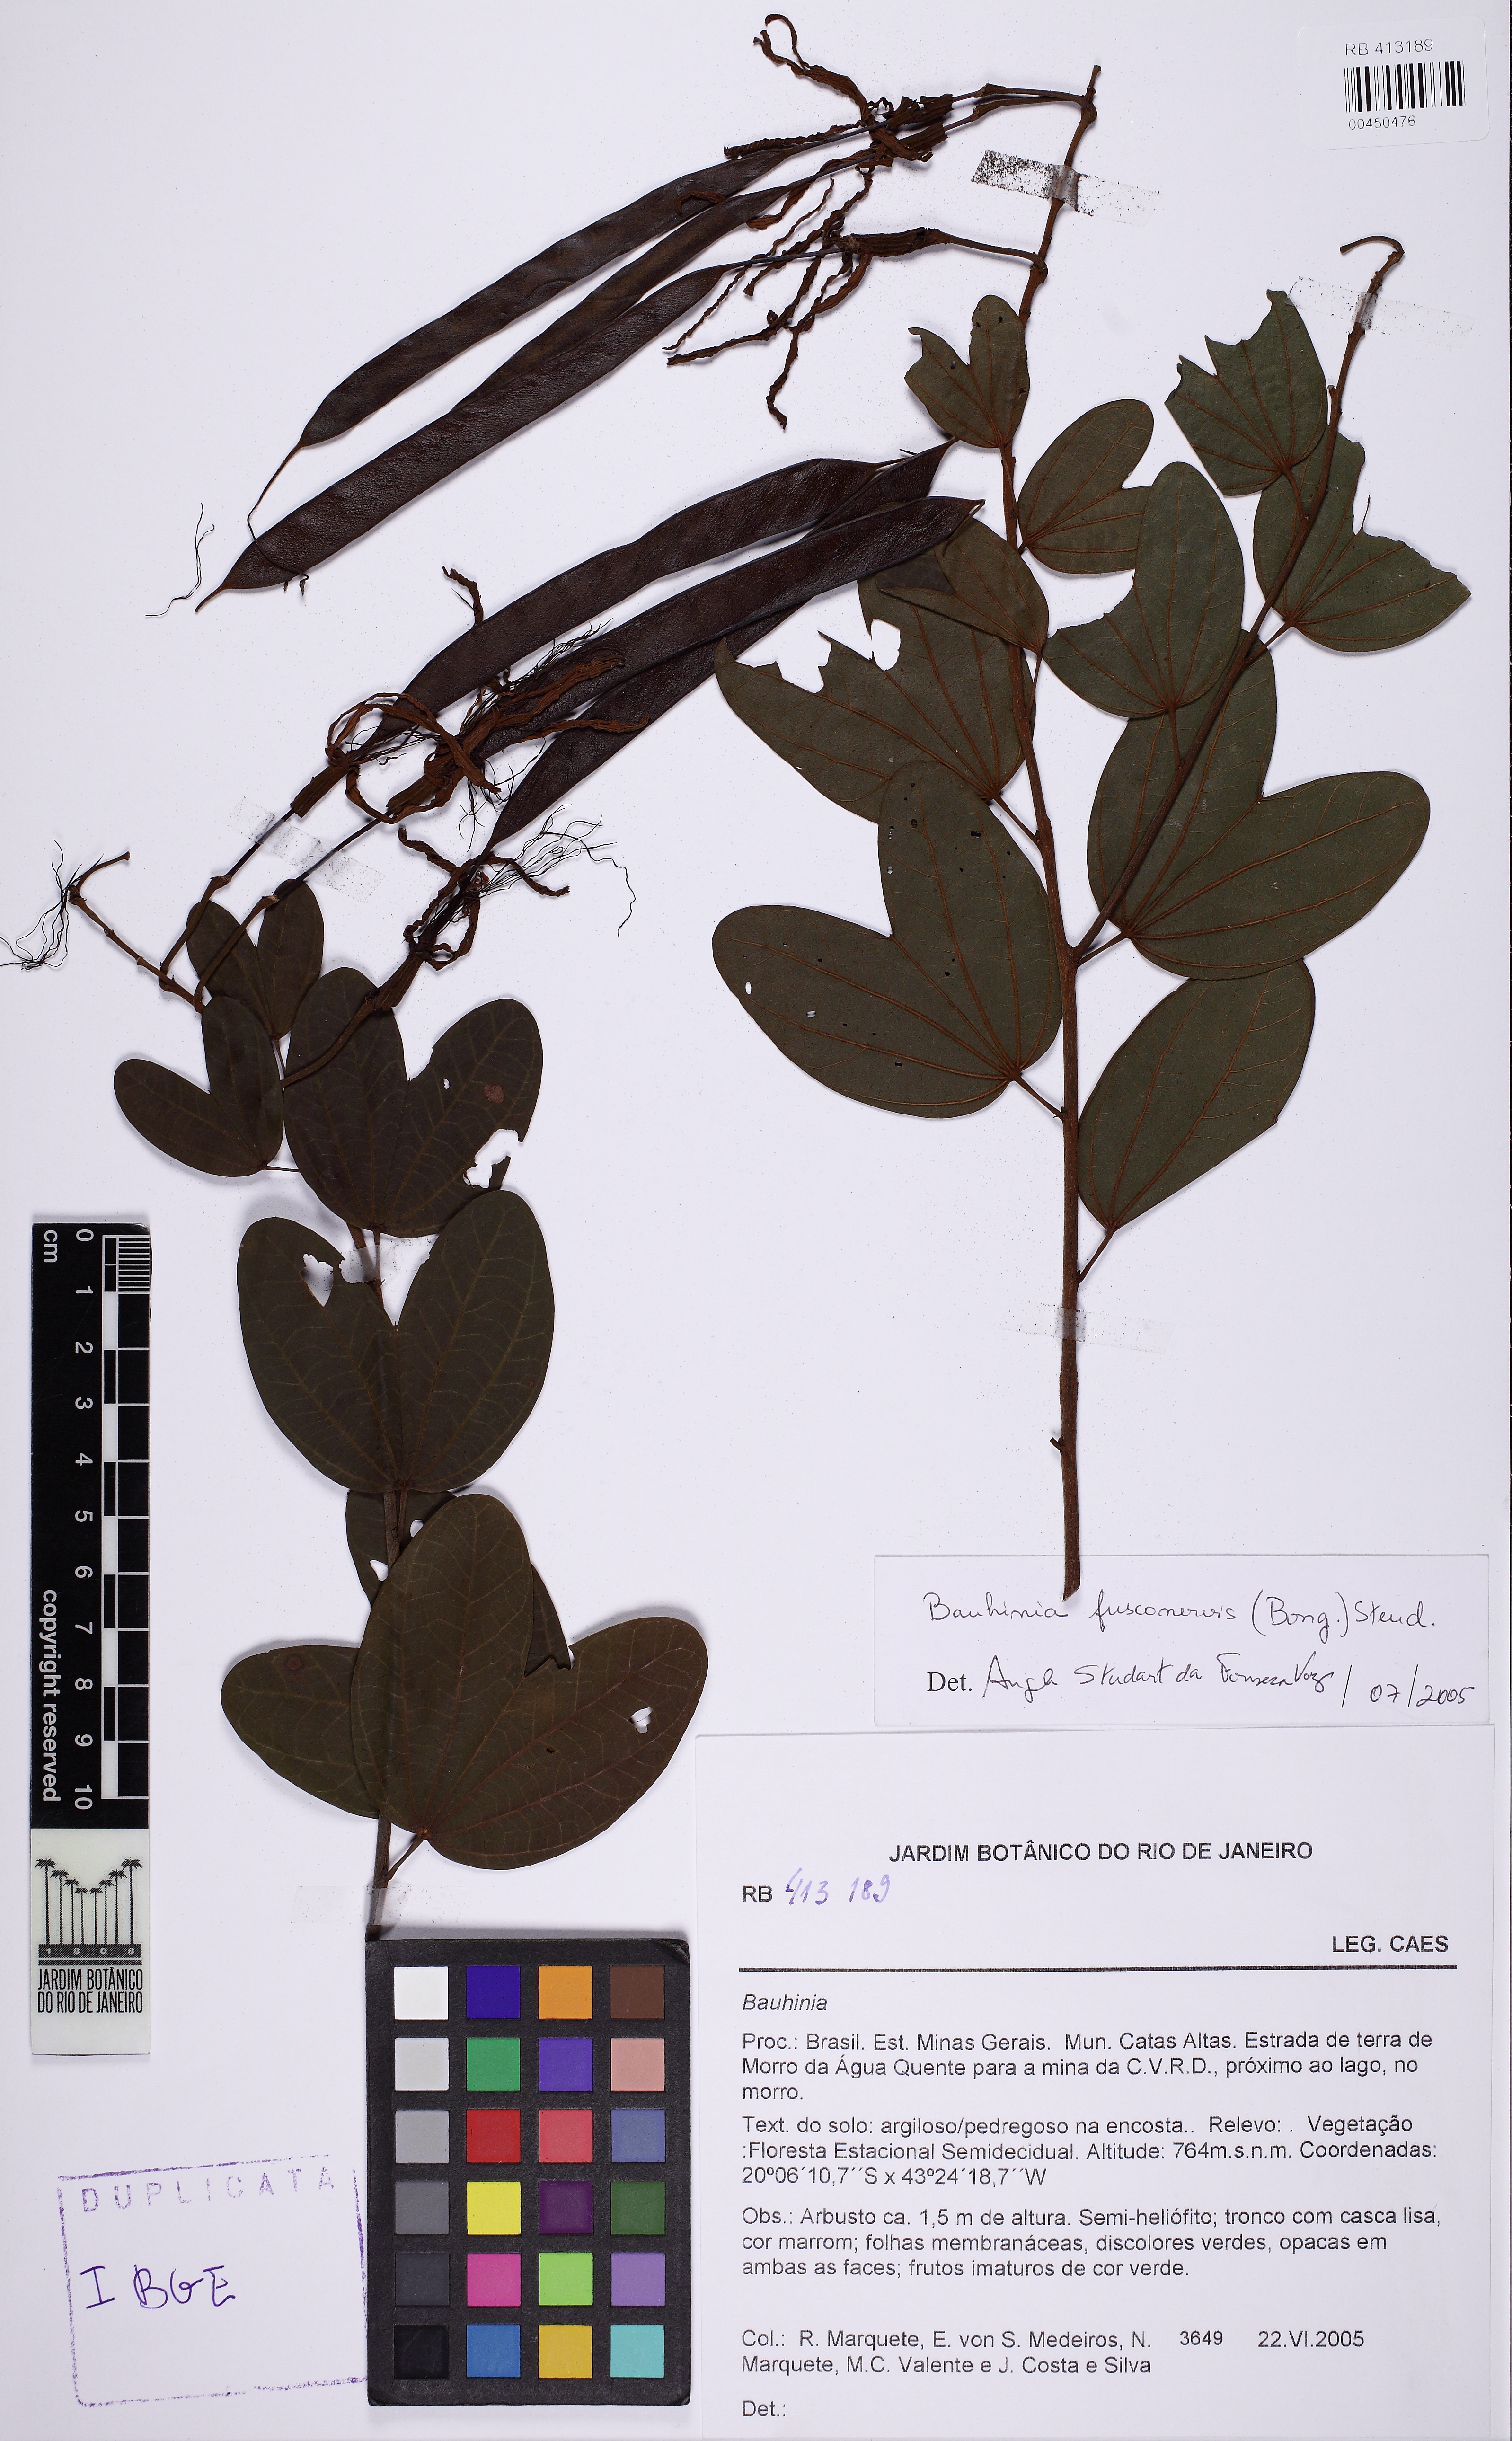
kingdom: Plantae
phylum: Tracheophyta
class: Magnoliopsida
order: Fabales
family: Fabaceae
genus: Bauhinia
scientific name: Bauhinia fusconervis
